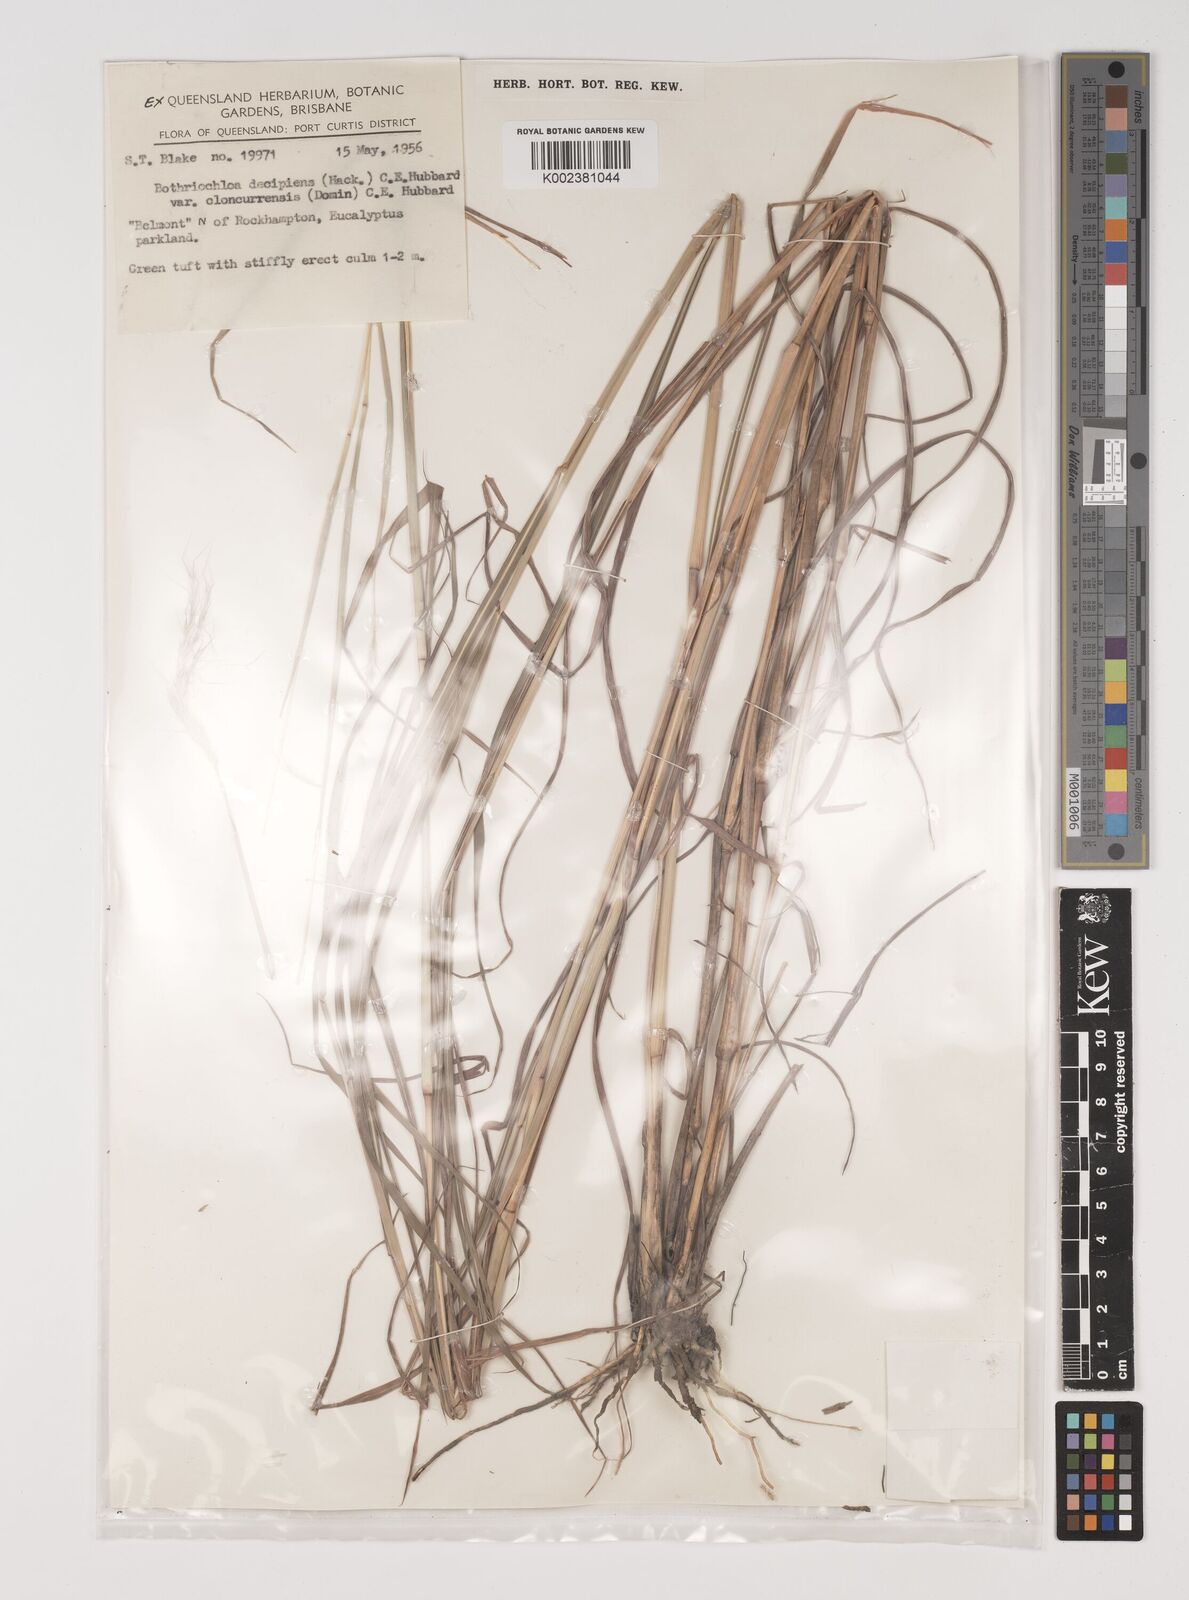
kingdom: Plantae
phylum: Tracheophyta
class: Liliopsida
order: Poales
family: Poaceae
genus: Bothriochloa
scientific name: Bothriochloa decipiens
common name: Pitted-bluegrass
